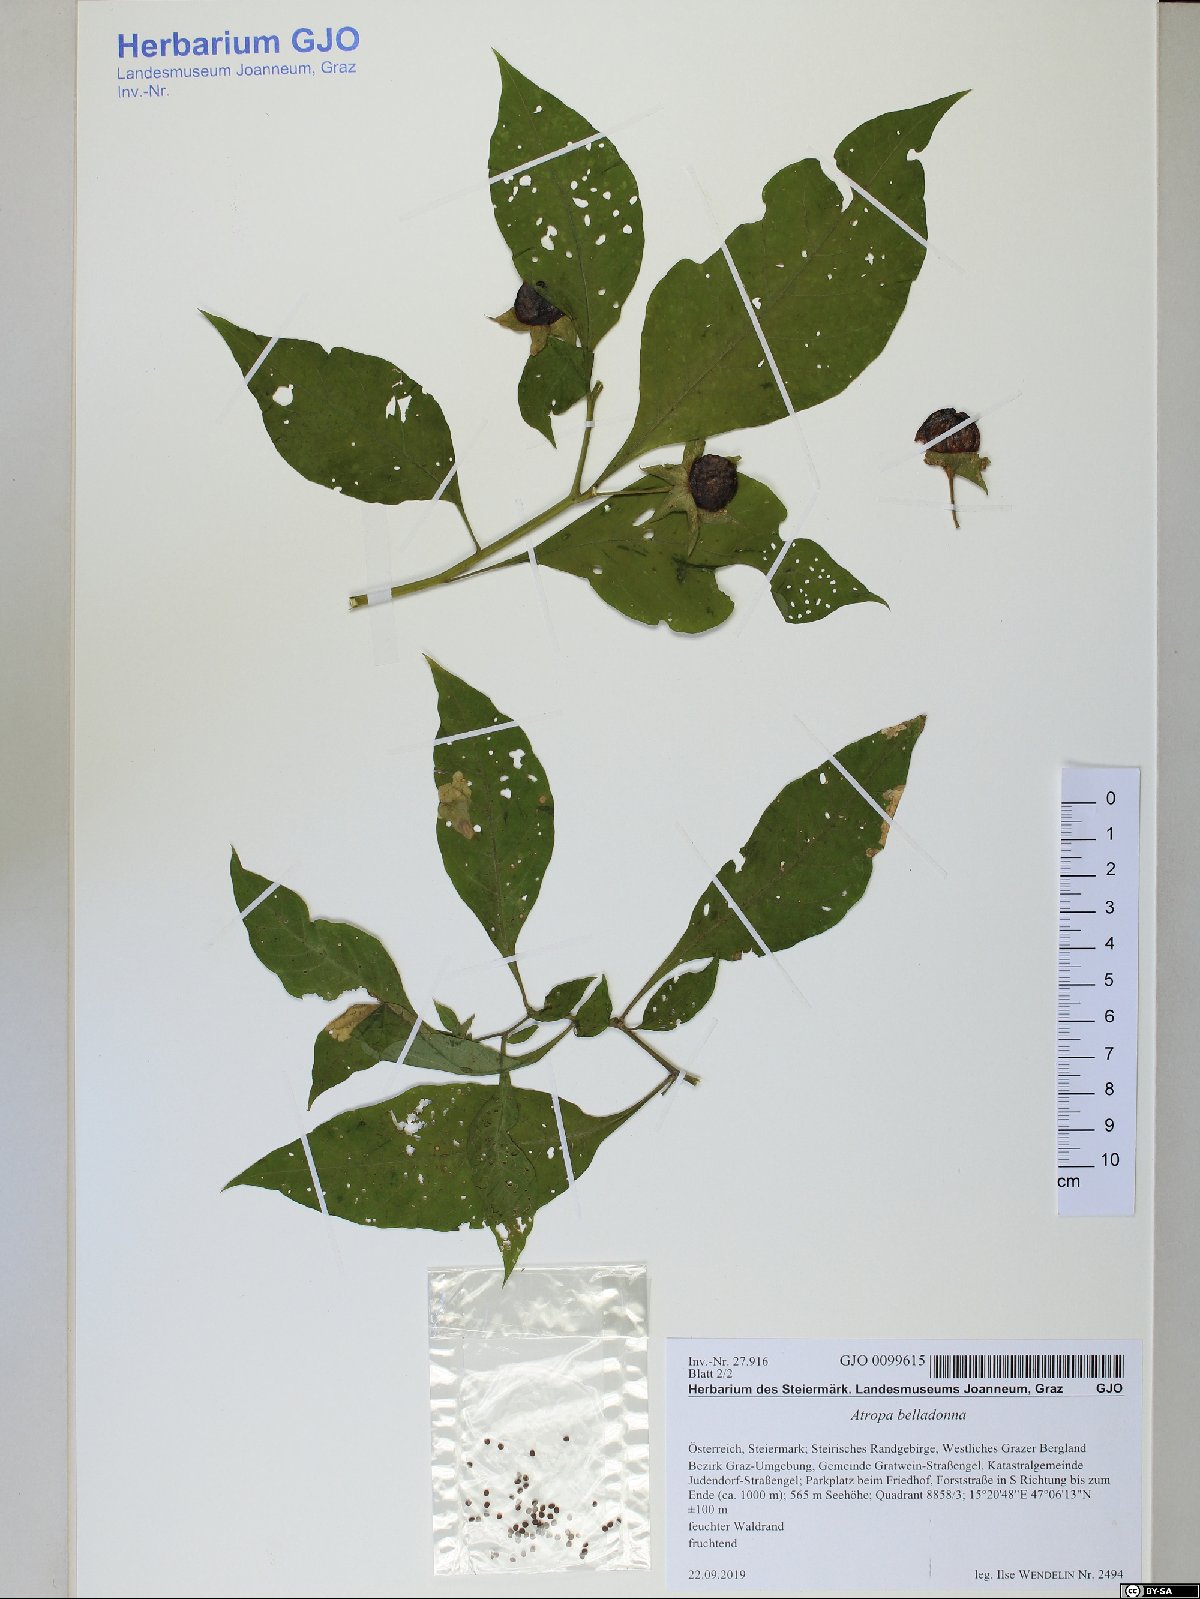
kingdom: Plantae
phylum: Tracheophyta
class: Magnoliopsida
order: Solanales
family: Solanaceae
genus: Atropa
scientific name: Atropa belladonna
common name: Deadly nightshade
